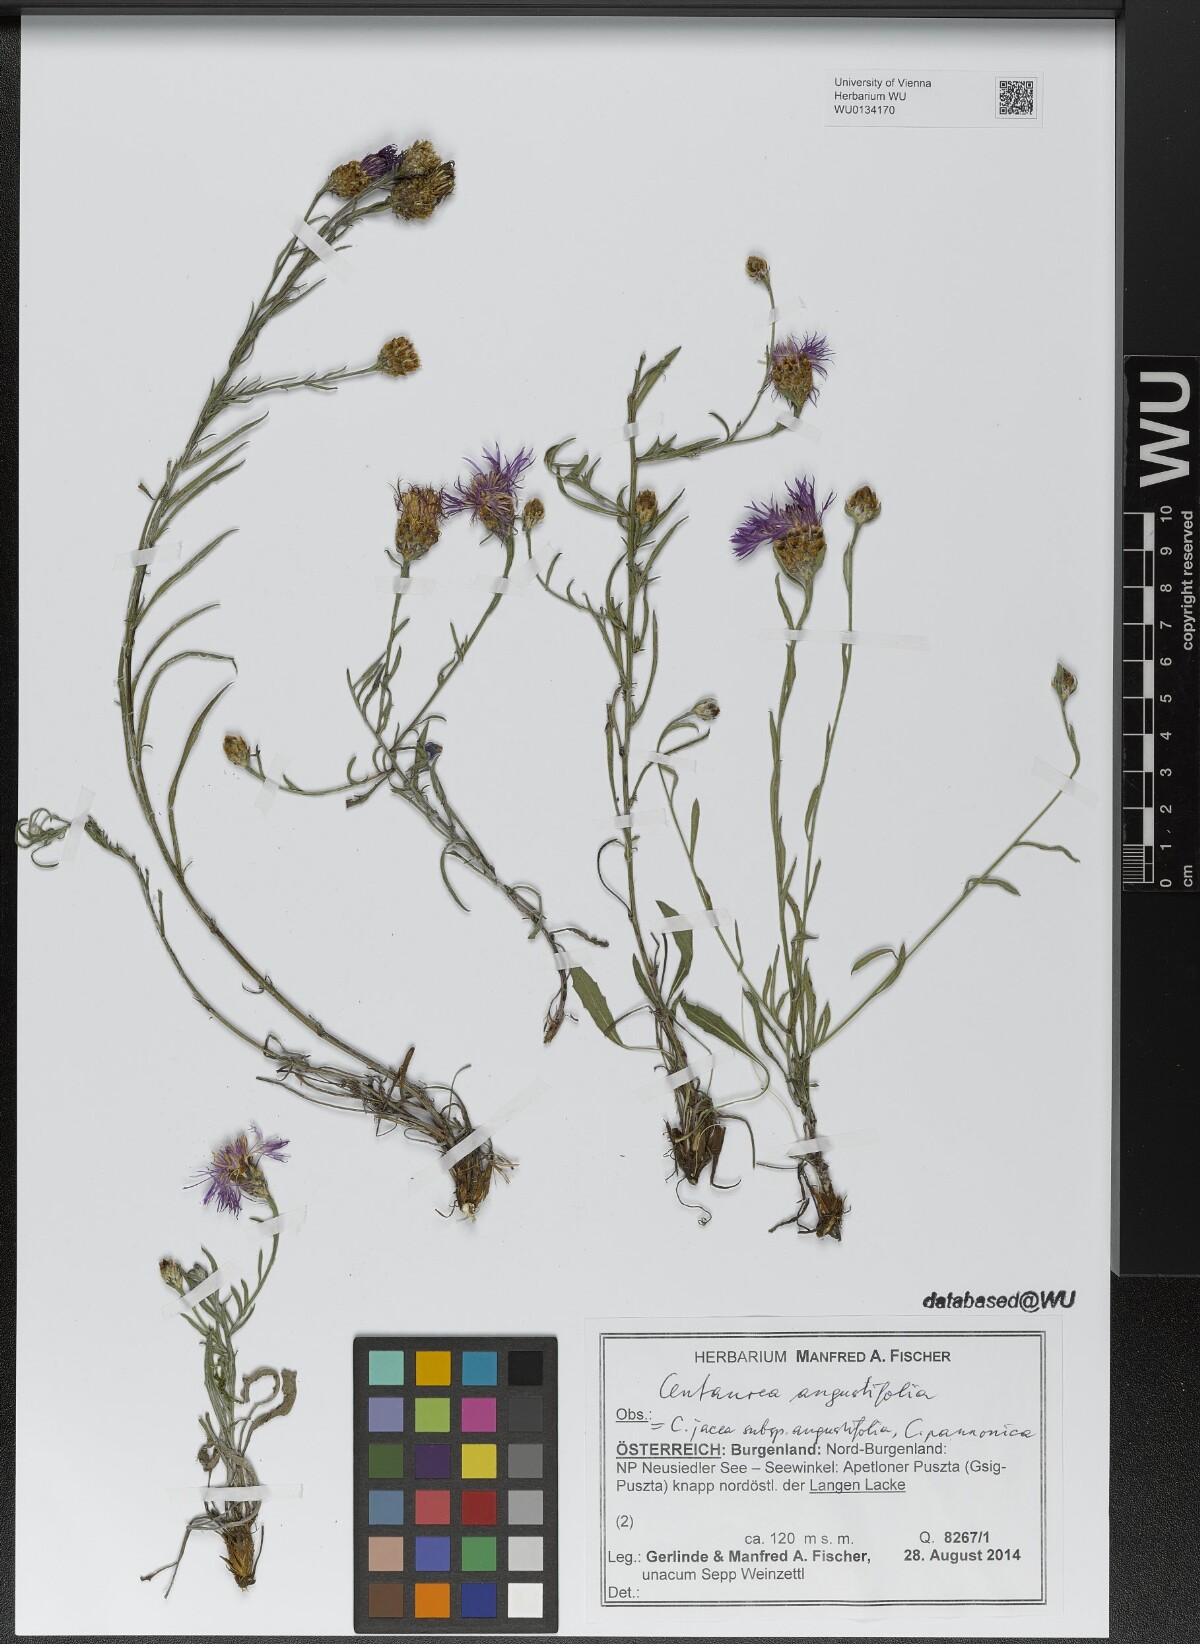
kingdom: Plantae
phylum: Tracheophyta
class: Magnoliopsida
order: Asterales
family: Asteraceae
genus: Centaurea
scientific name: Centaurea pannonica
